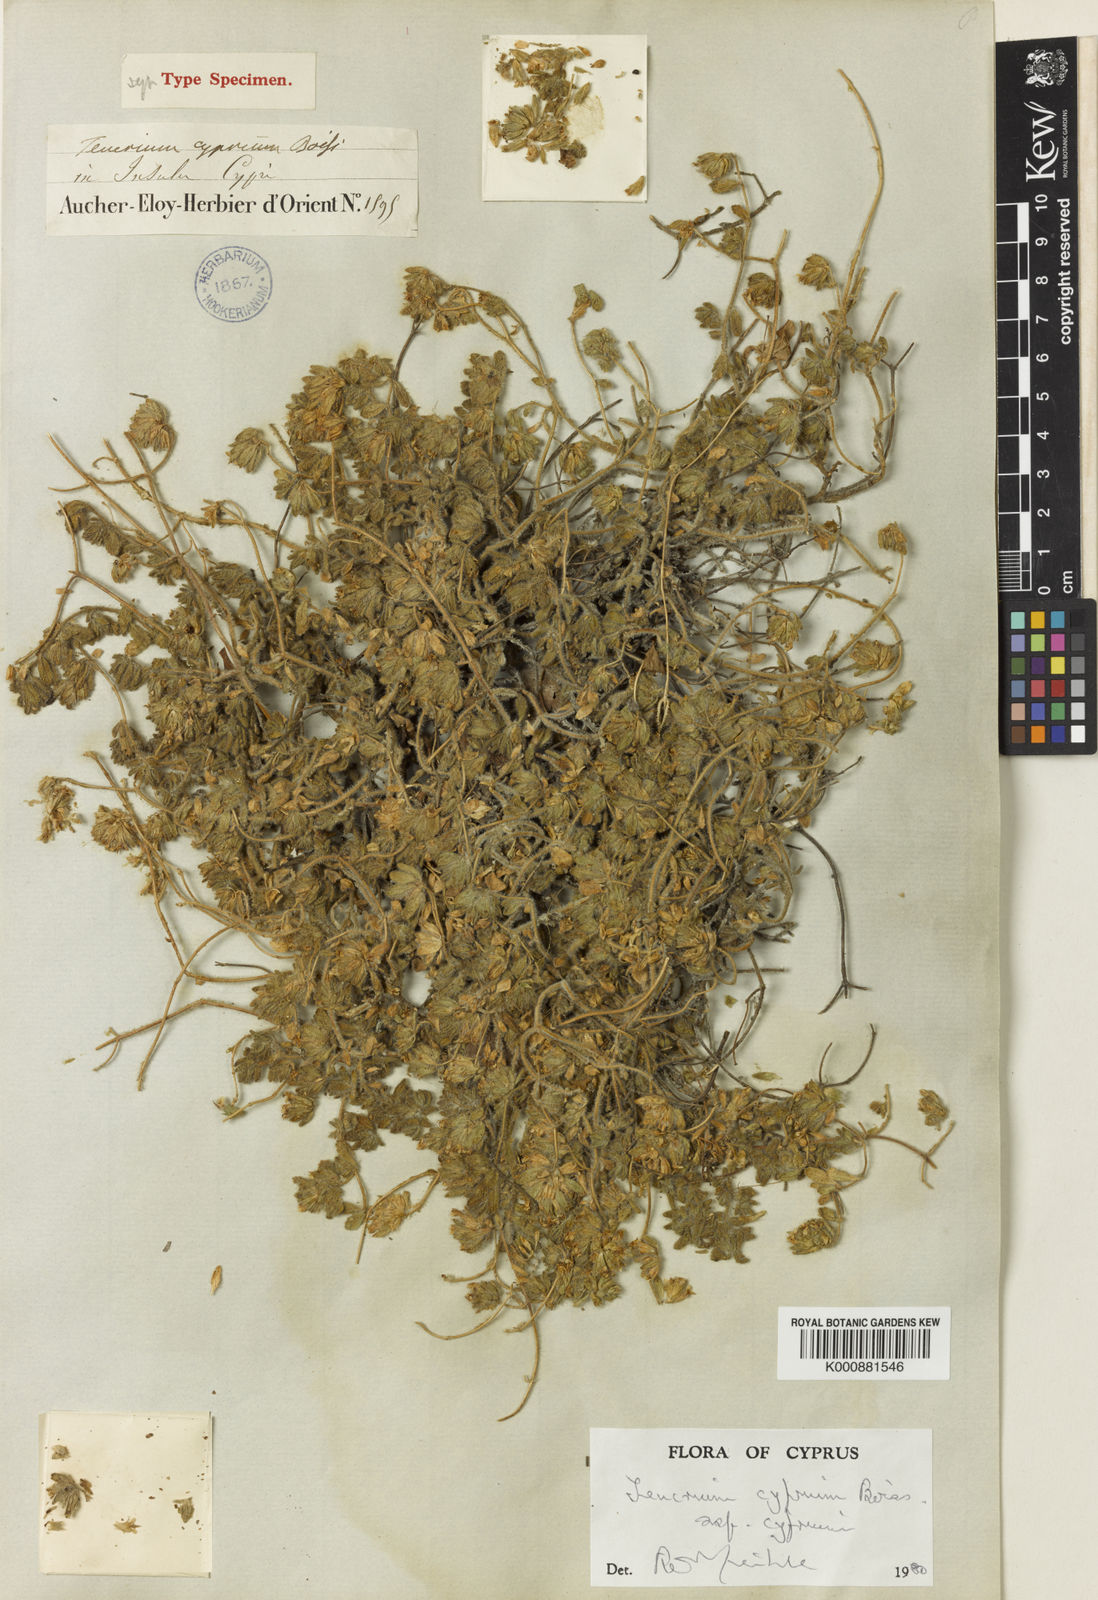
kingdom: Plantae
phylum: Tracheophyta
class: Magnoliopsida
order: Lamiales
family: Lamiaceae
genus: Teucrium
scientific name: Teucrium cyprium
